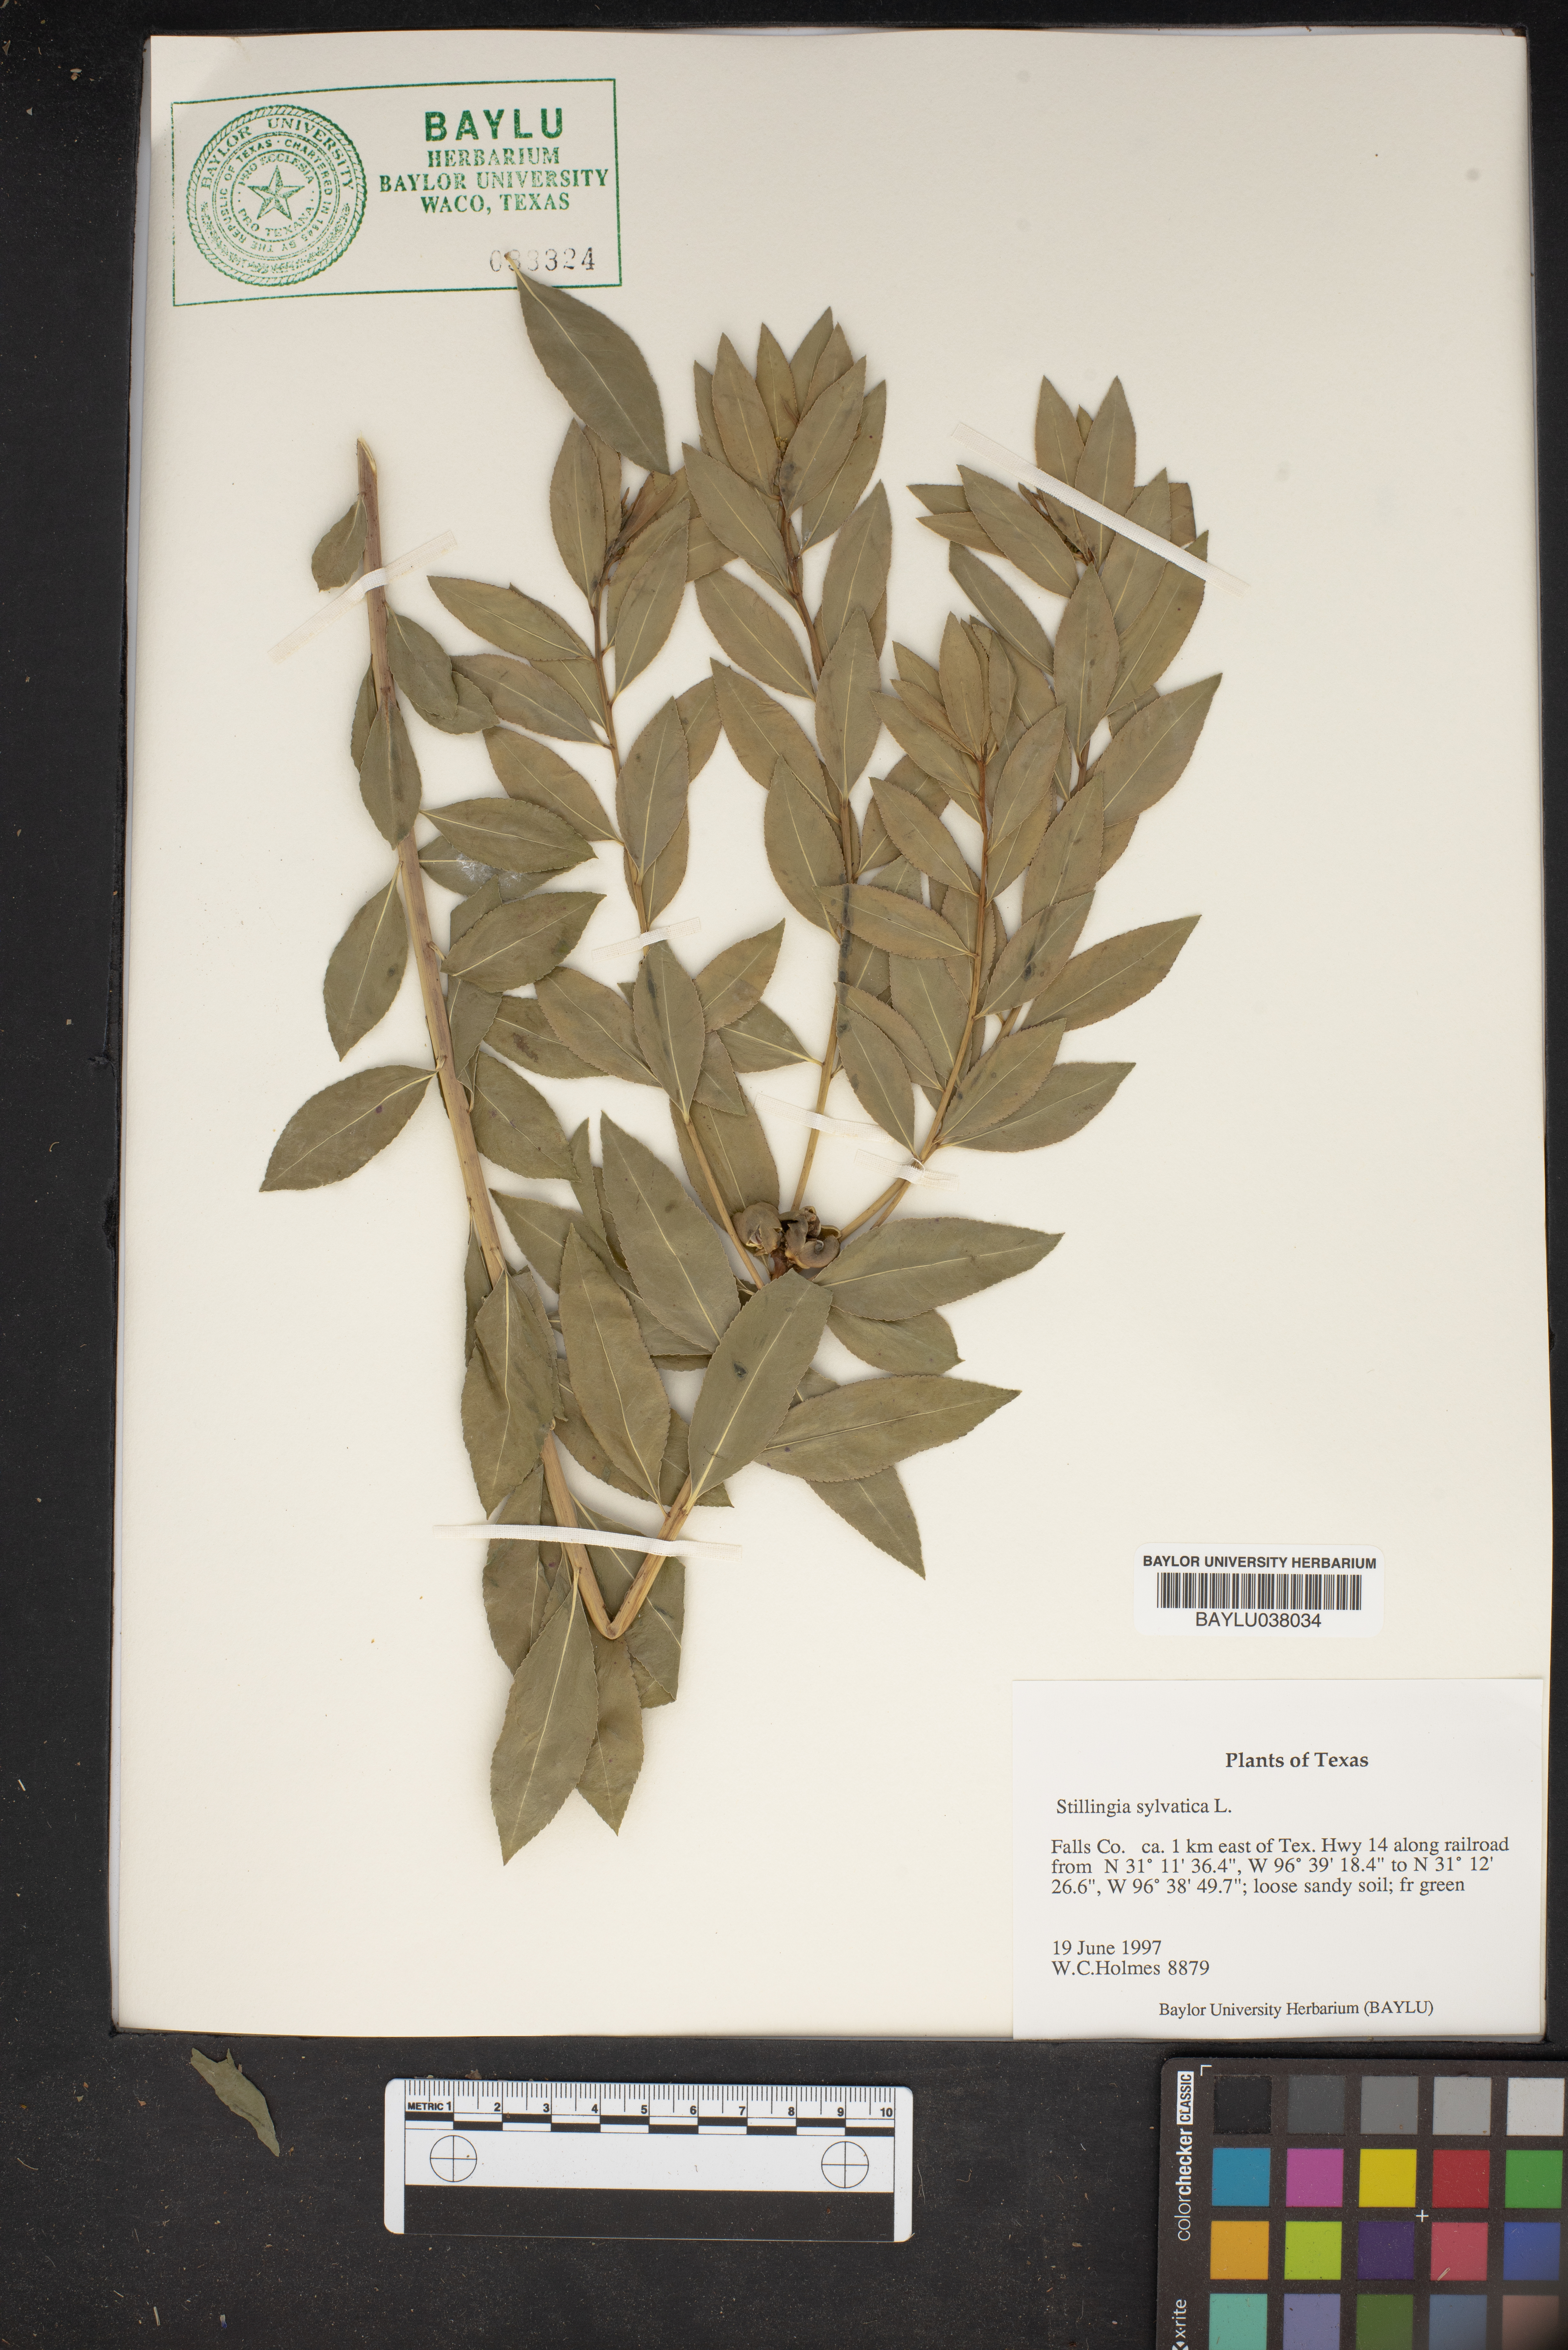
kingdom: Plantae
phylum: Tracheophyta
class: Magnoliopsida
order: Malpighiales
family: Euphorbiaceae
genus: Stillingia
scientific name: Stillingia sylvatica
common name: Queen's-delight
